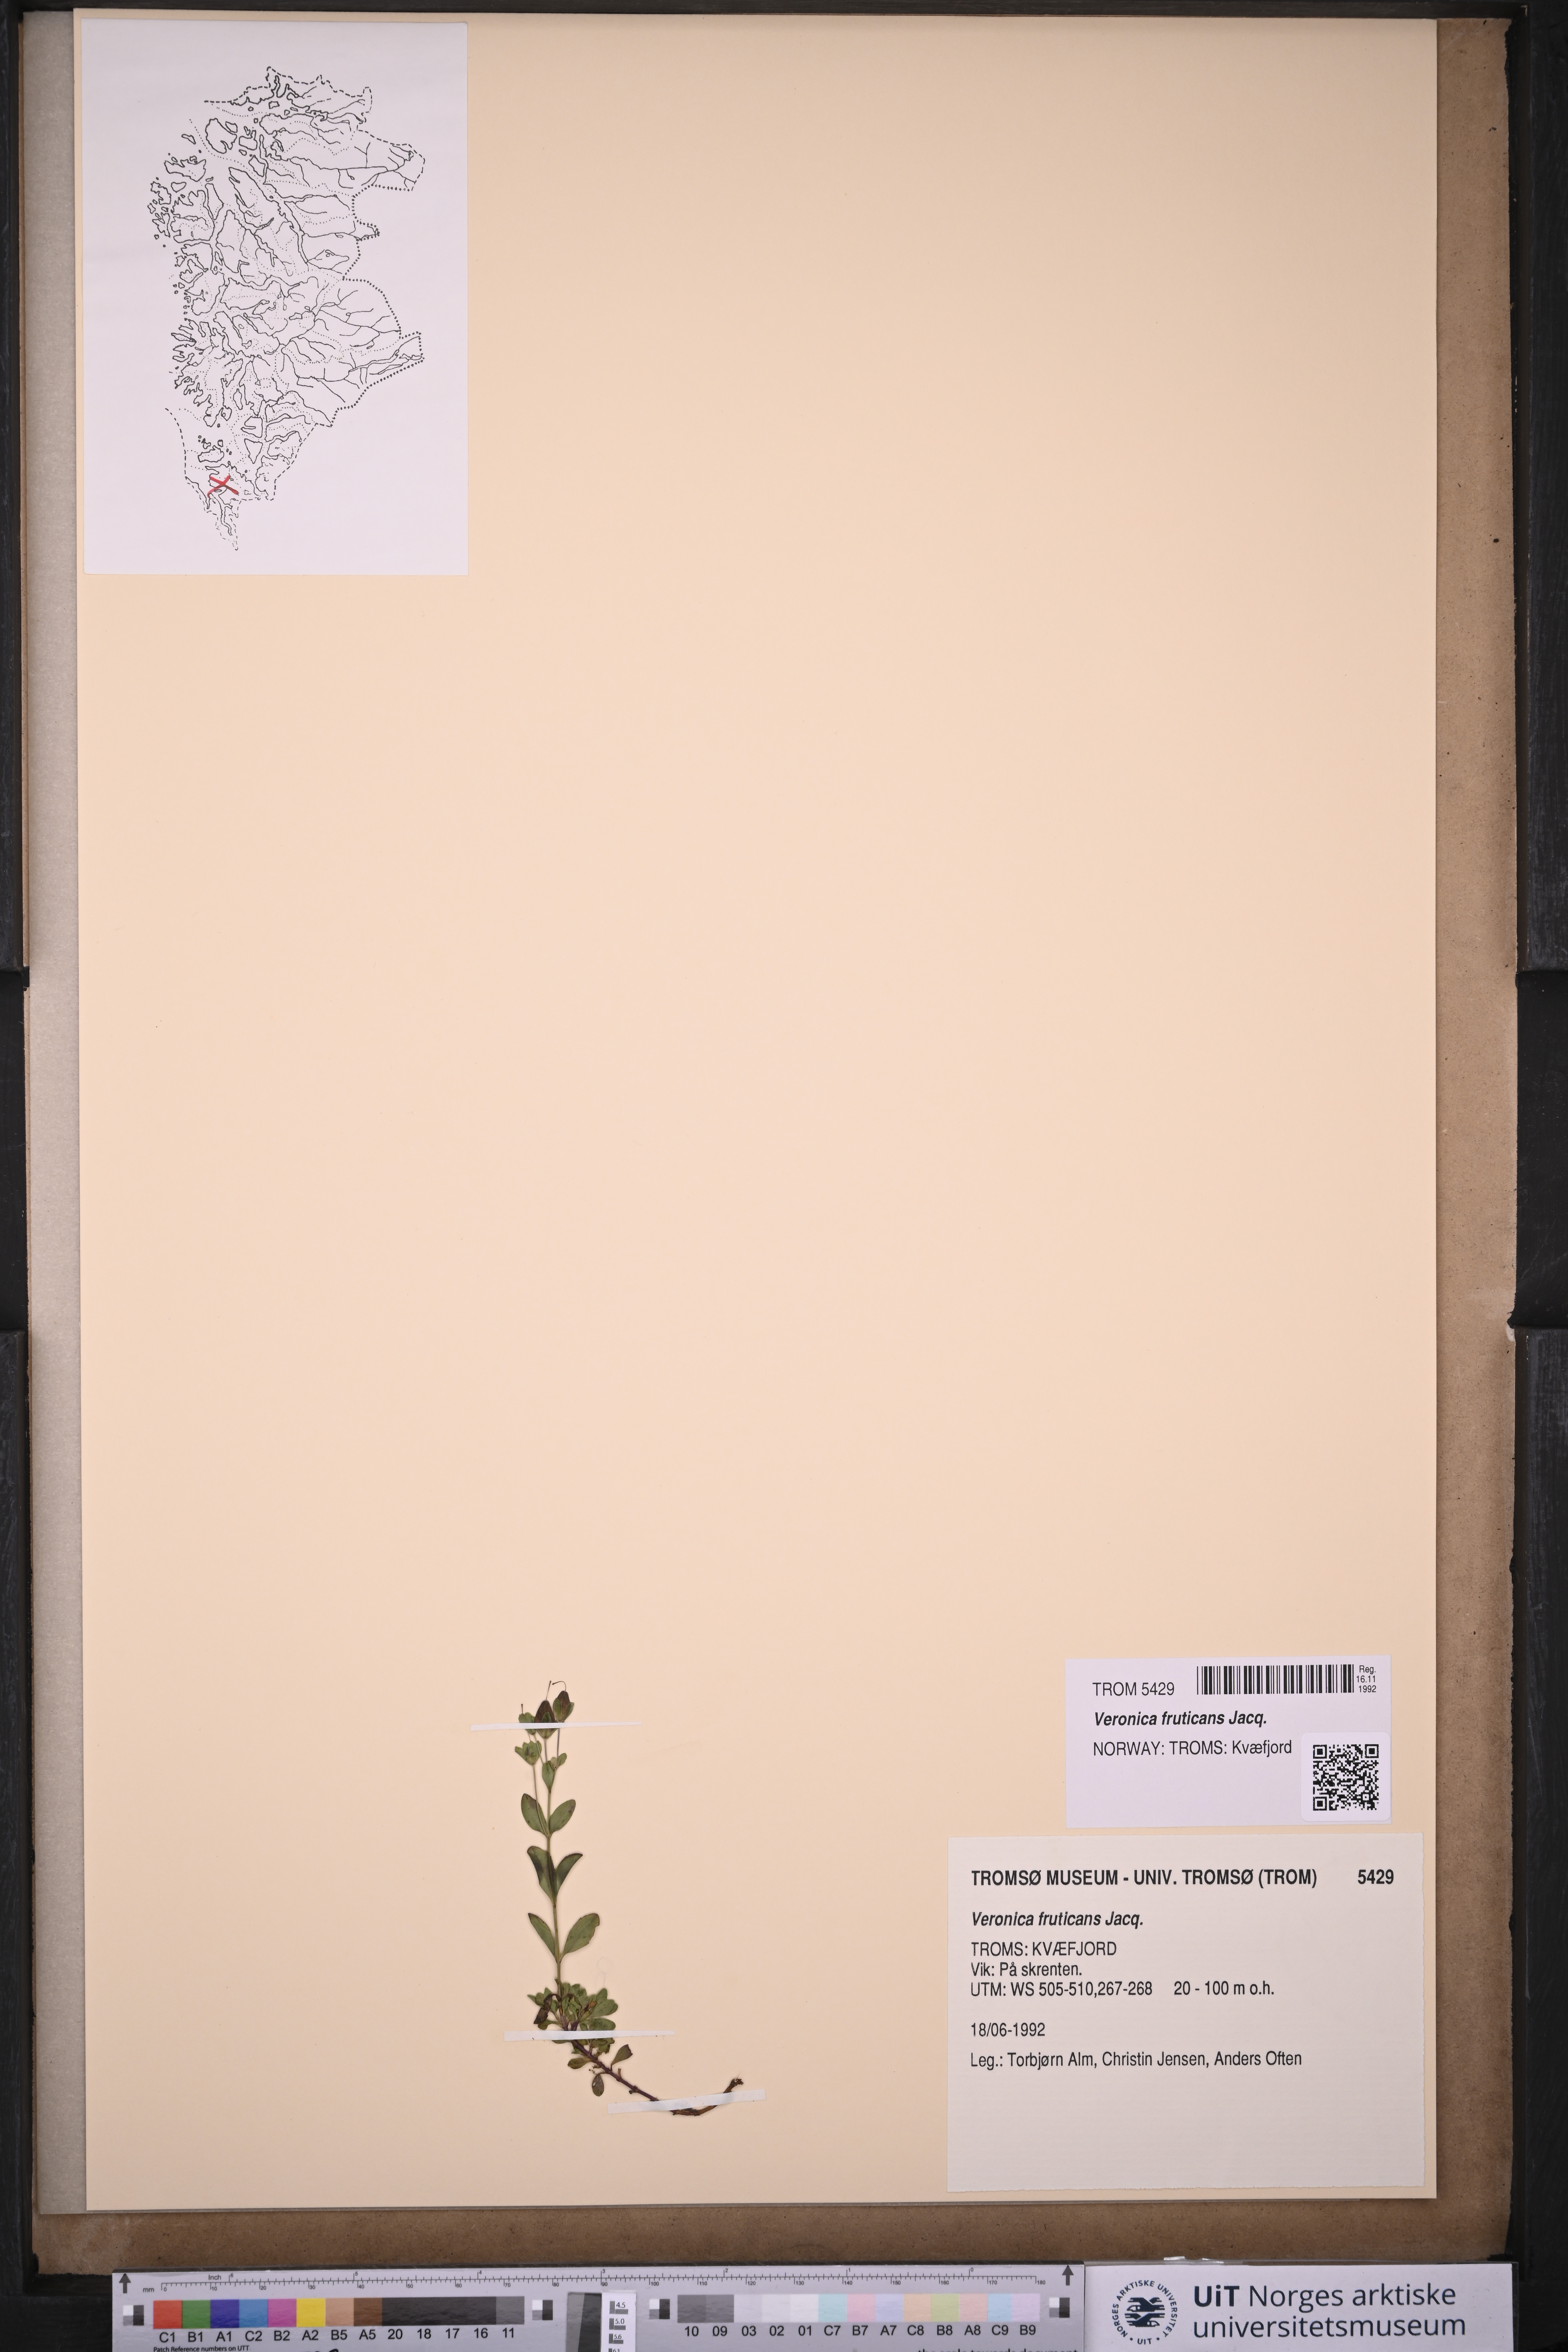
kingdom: Plantae
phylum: Tracheophyta
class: Magnoliopsida
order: Lamiales
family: Plantaginaceae
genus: Veronica
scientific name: Veronica fruticans
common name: Rock speedwell
